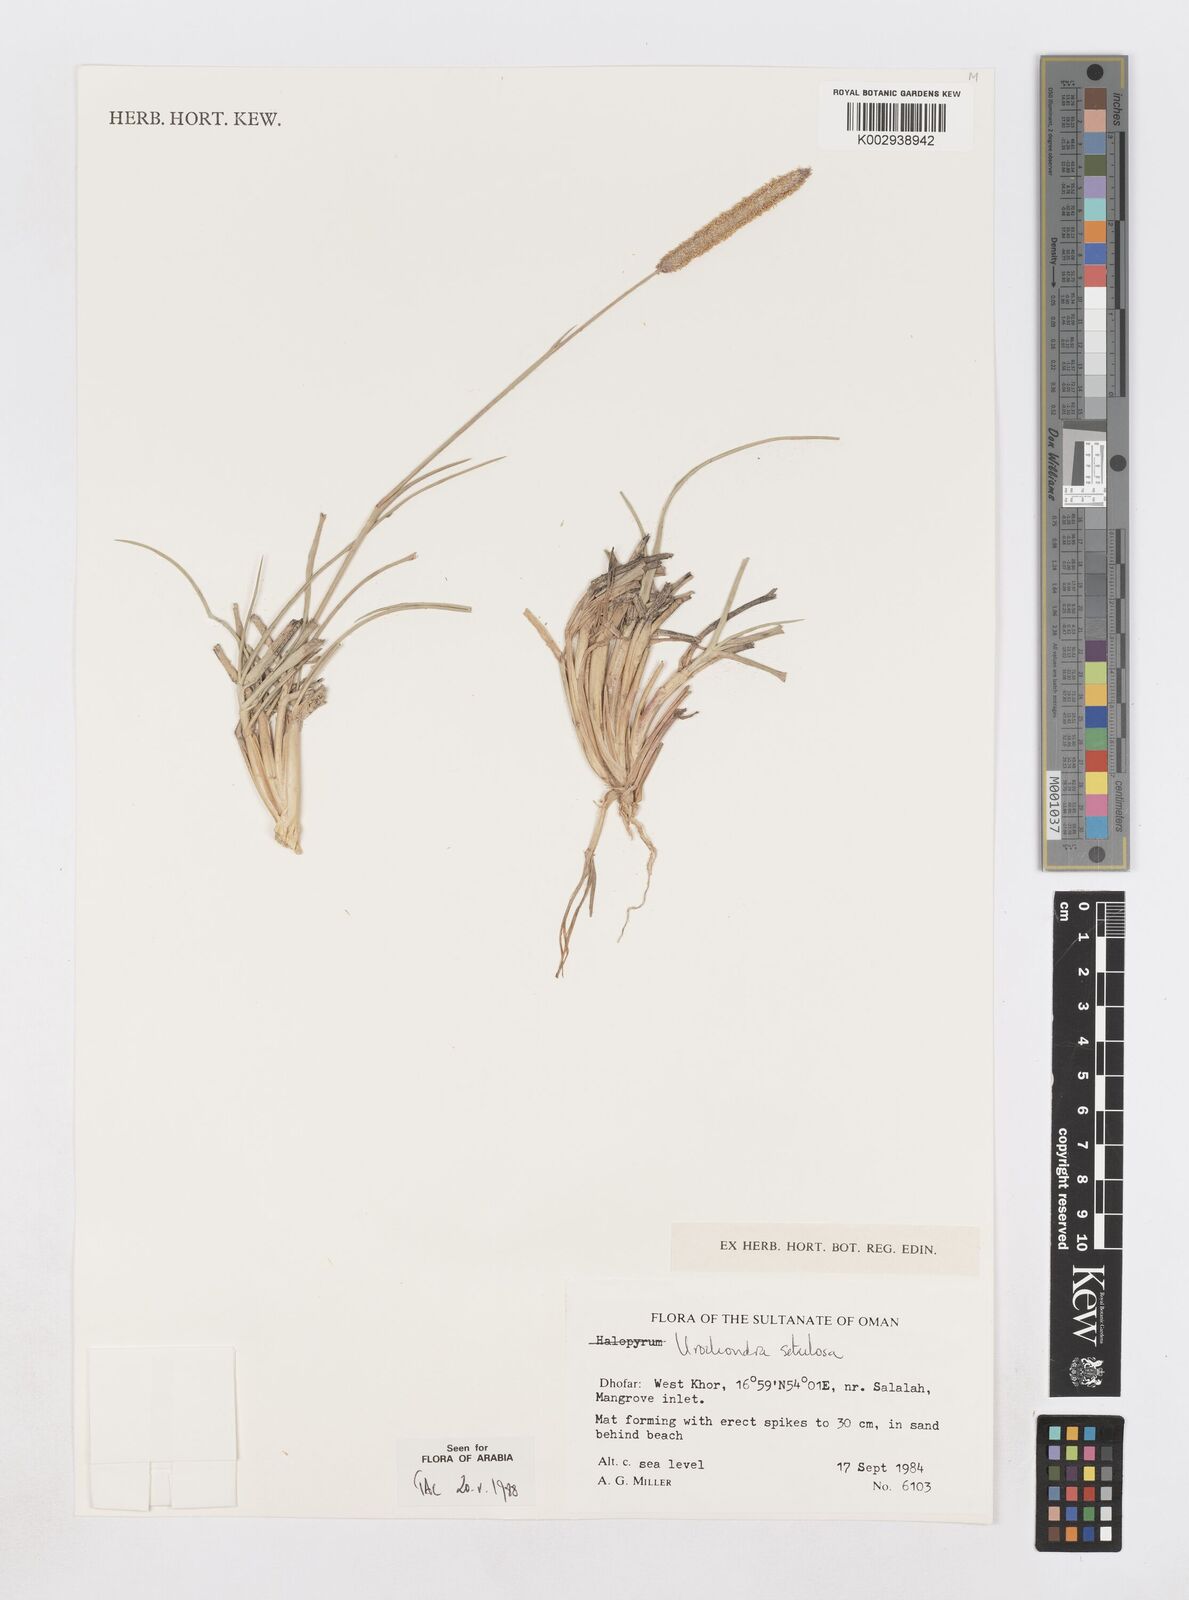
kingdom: Plantae
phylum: Tracheophyta
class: Liliopsida
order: Poales
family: Poaceae
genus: Urochondra
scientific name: Urochondra setulosa
